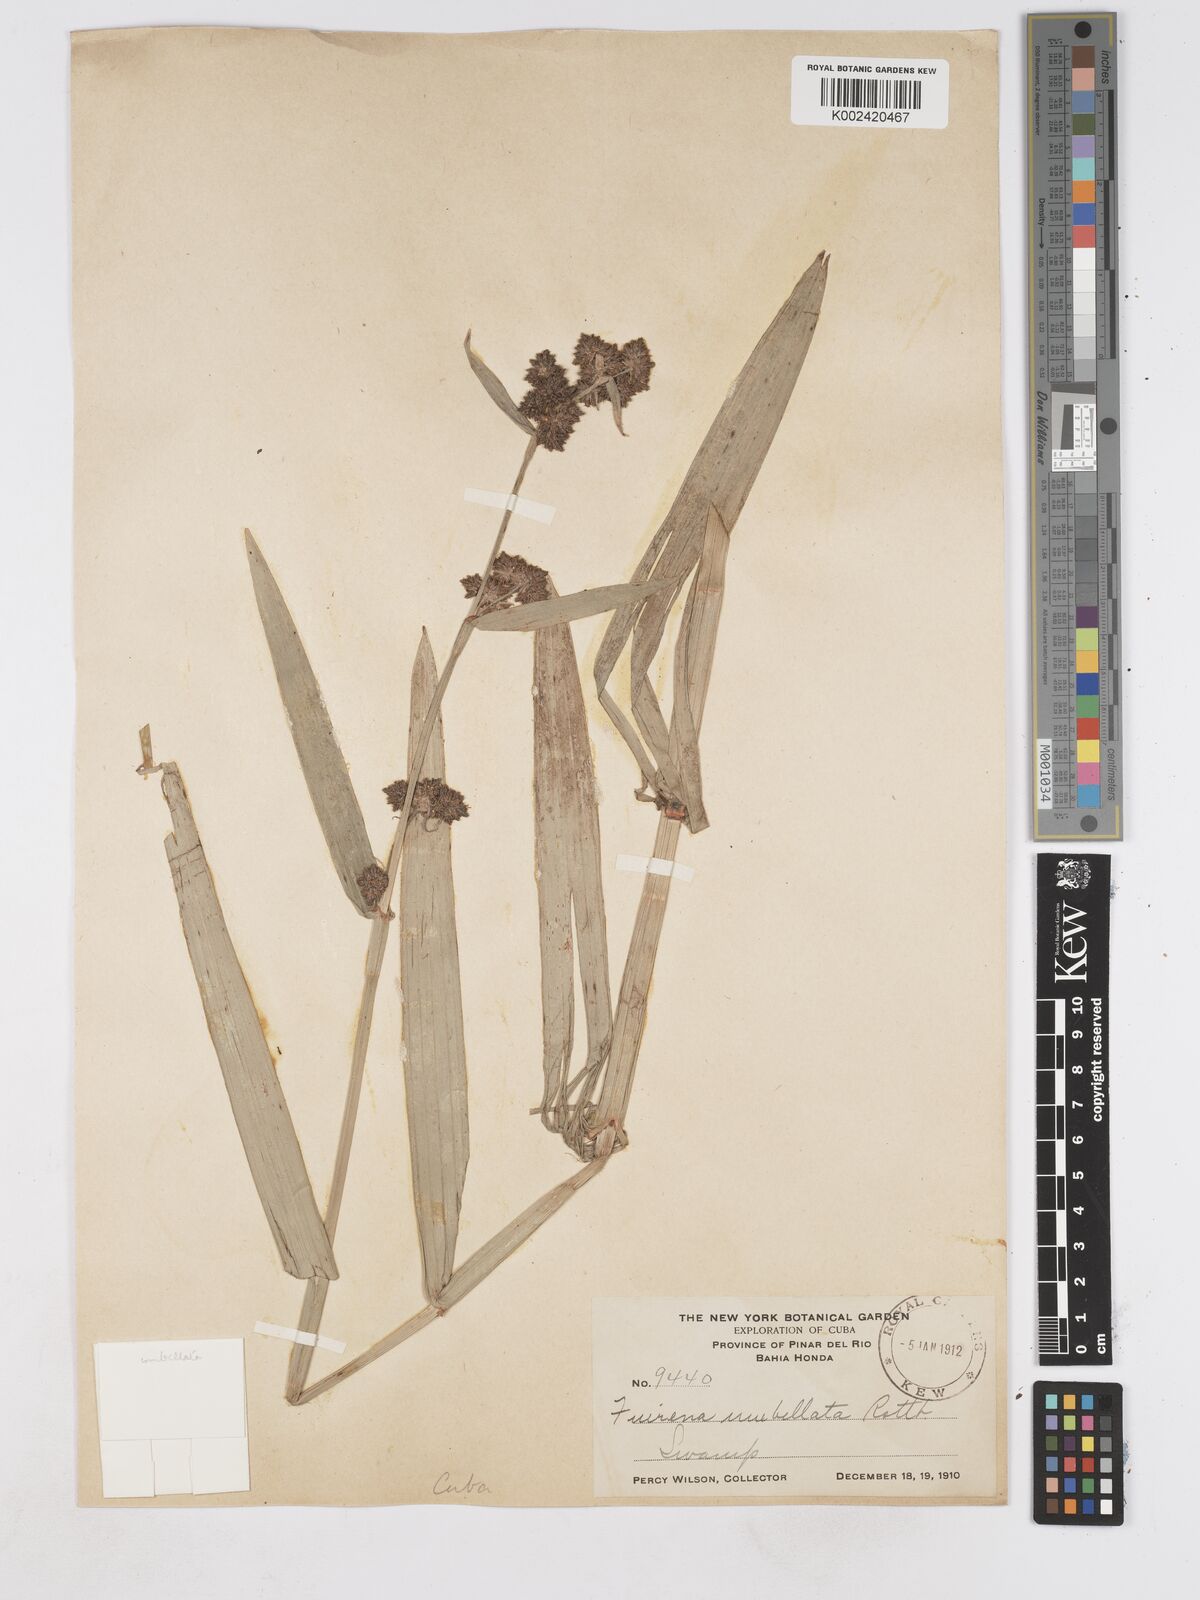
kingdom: Plantae
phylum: Tracheophyta
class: Liliopsida
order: Poales
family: Cyperaceae
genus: Fuirena
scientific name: Fuirena umbellata
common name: Yefen
